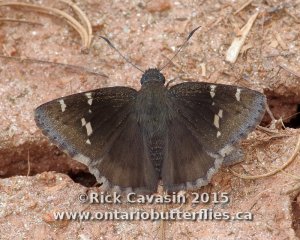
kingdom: Animalia
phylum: Arthropoda
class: Insecta
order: Lepidoptera
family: Hesperiidae
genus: Autochton
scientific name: Autochton
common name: Southern Cloudywing
